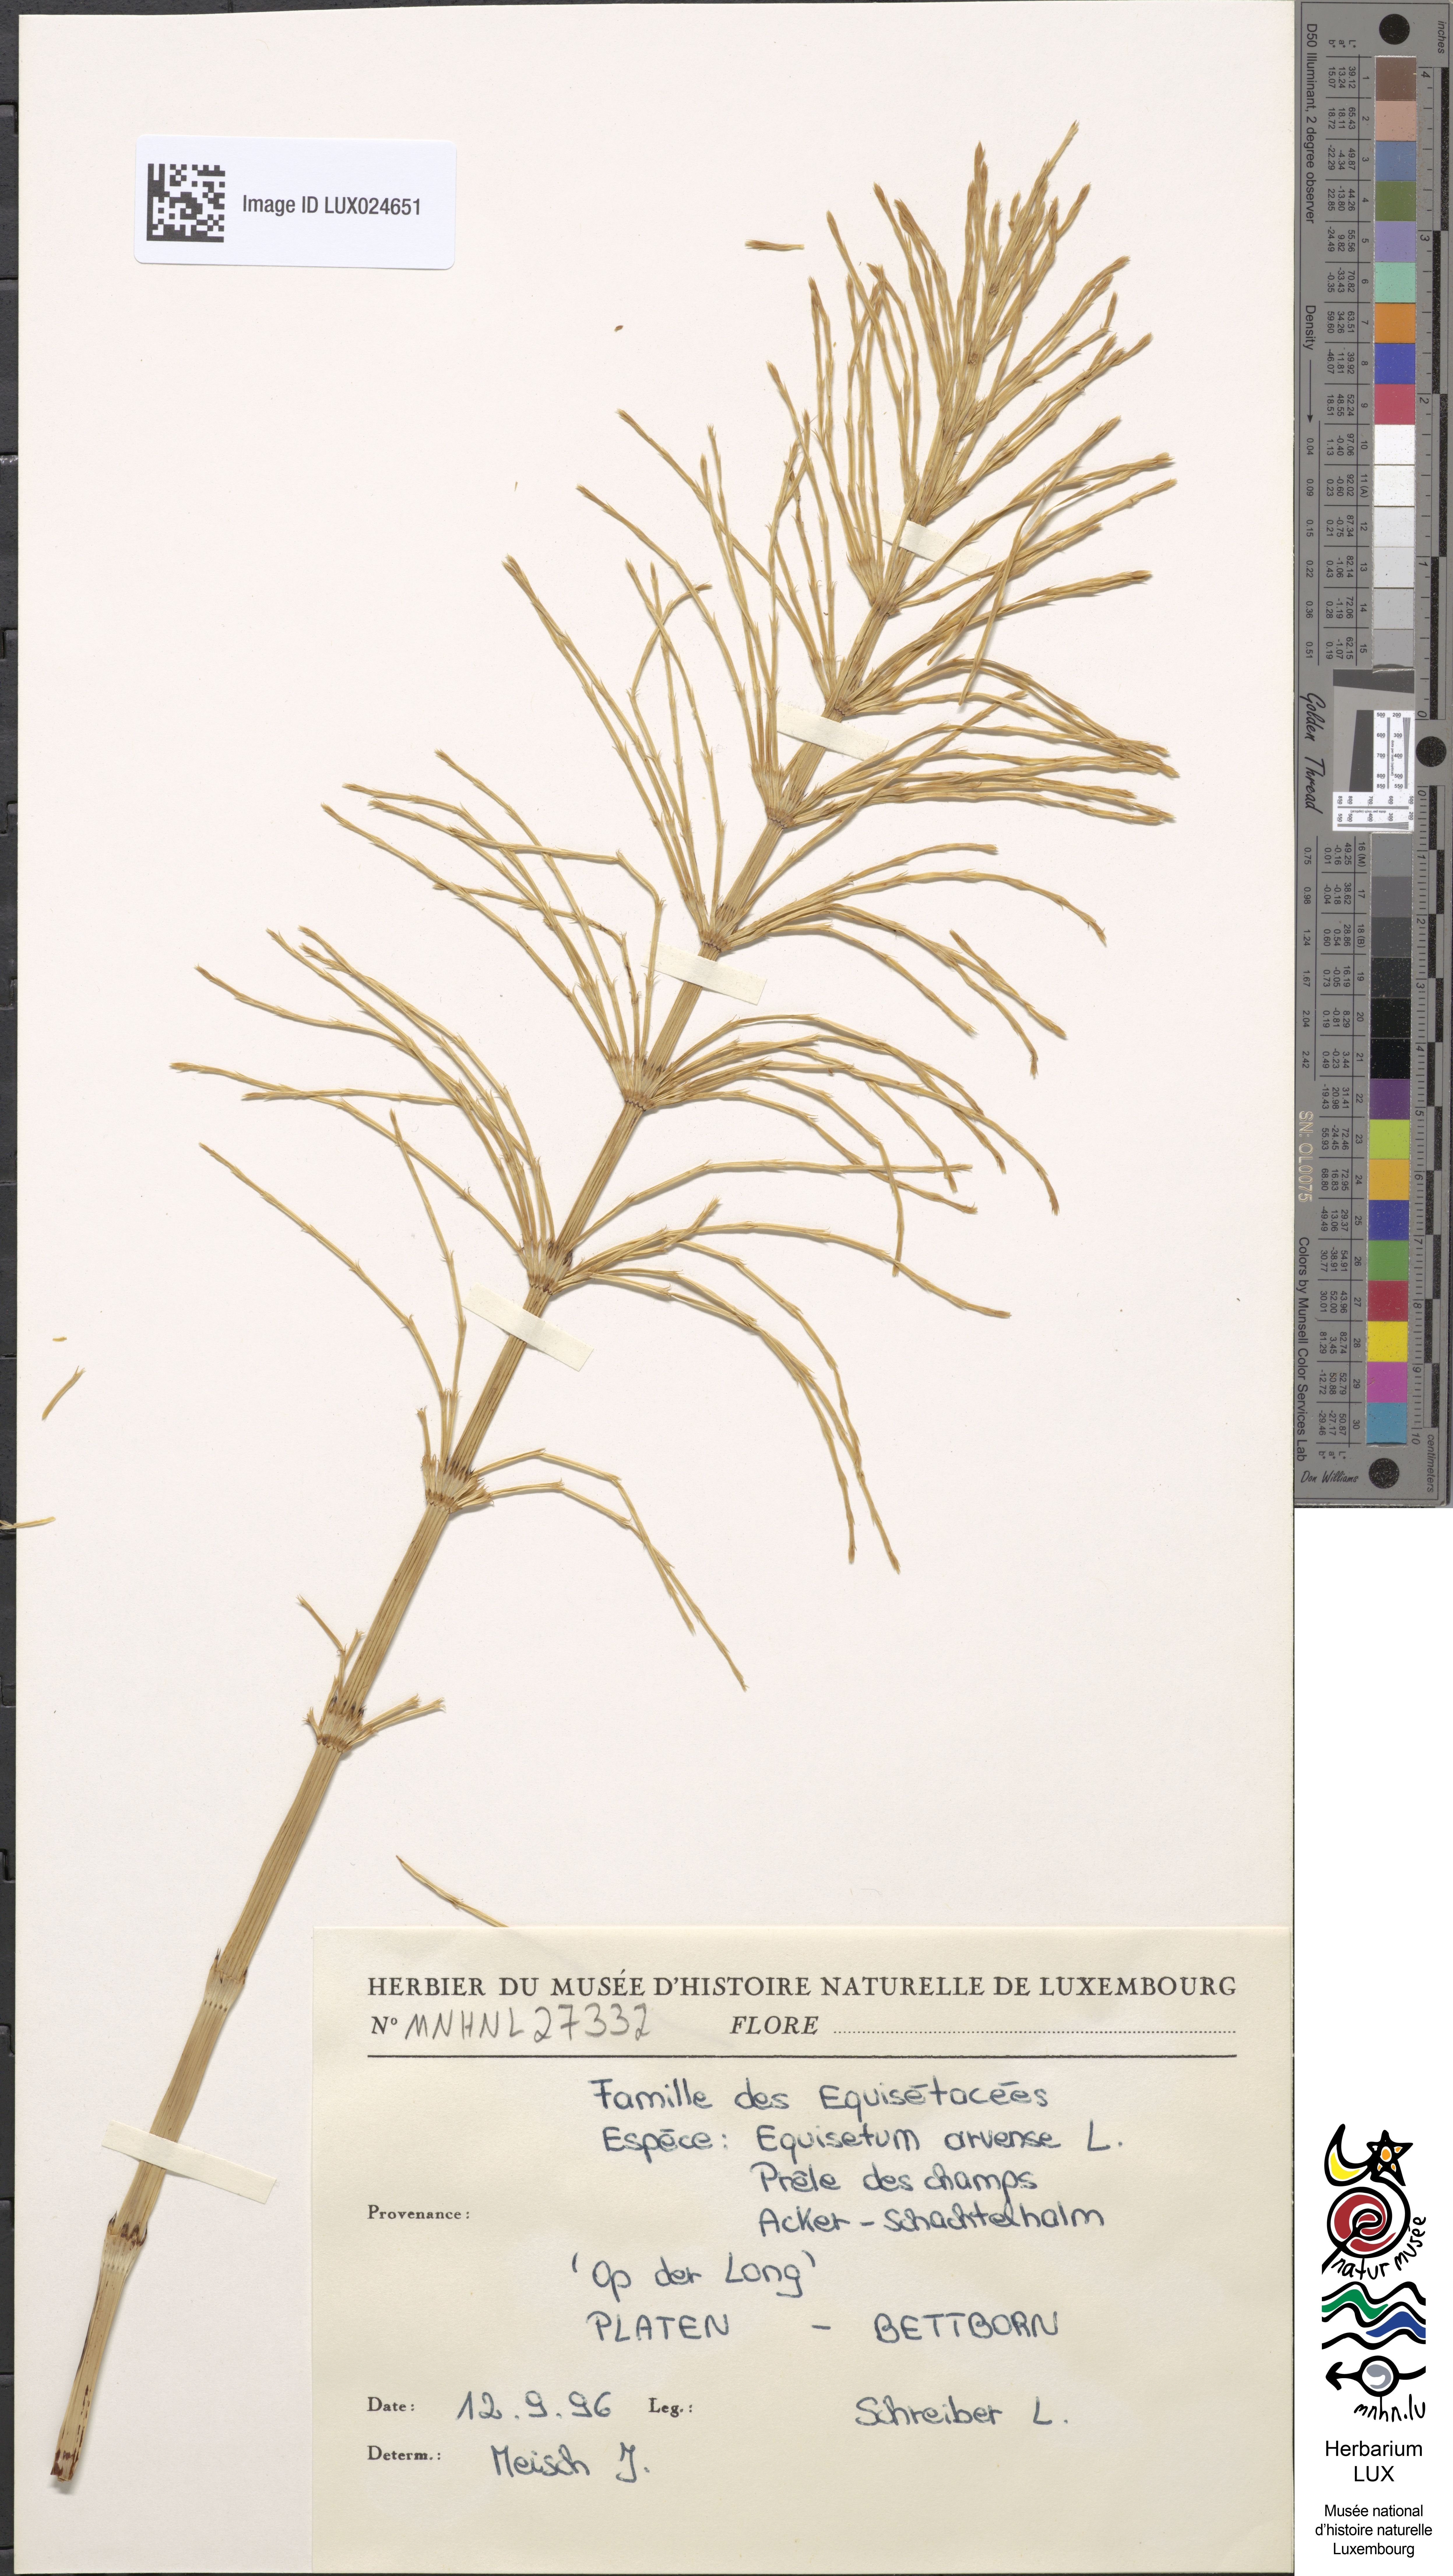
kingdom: Plantae
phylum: Tracheophyta
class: Polypodiopsida
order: Equisetales
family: Equisetaceae
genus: Equisetum
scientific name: Equisetum arvense
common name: Field horsetail
